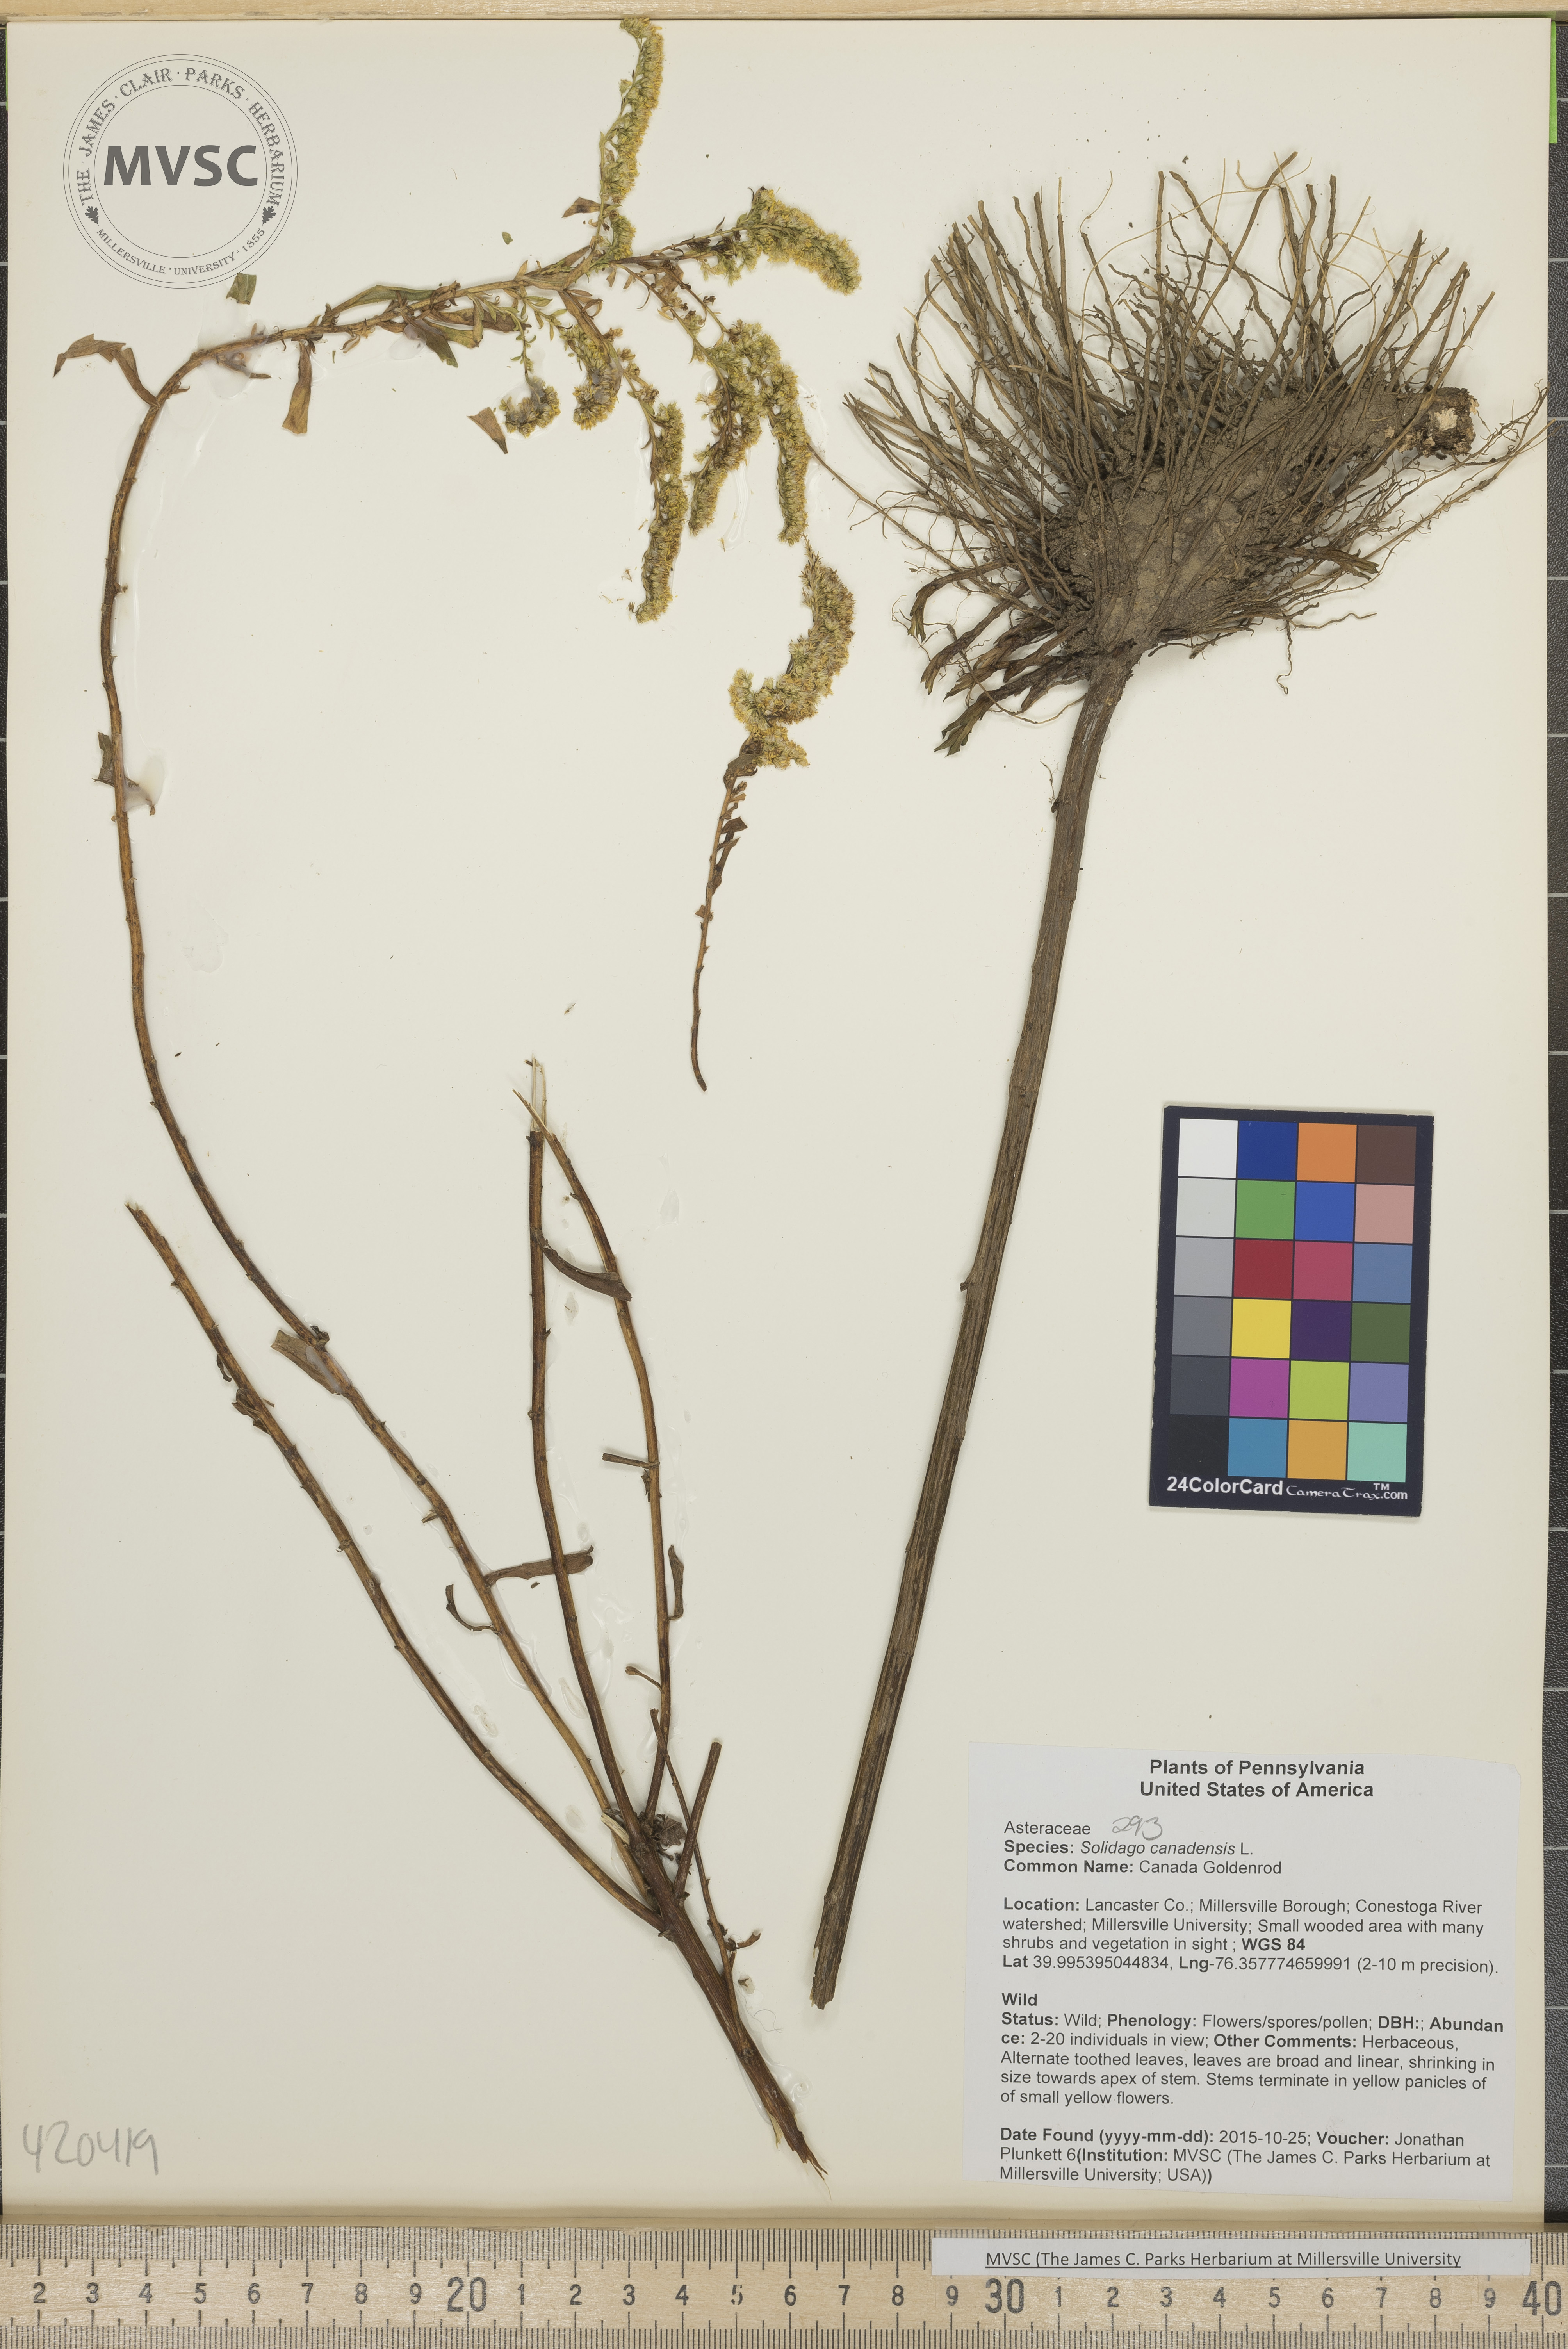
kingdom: Plantae
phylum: Tracheophyta
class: Magnoliopsida
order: Asterales
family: Asteraceae
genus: Solidago
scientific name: Solidago
